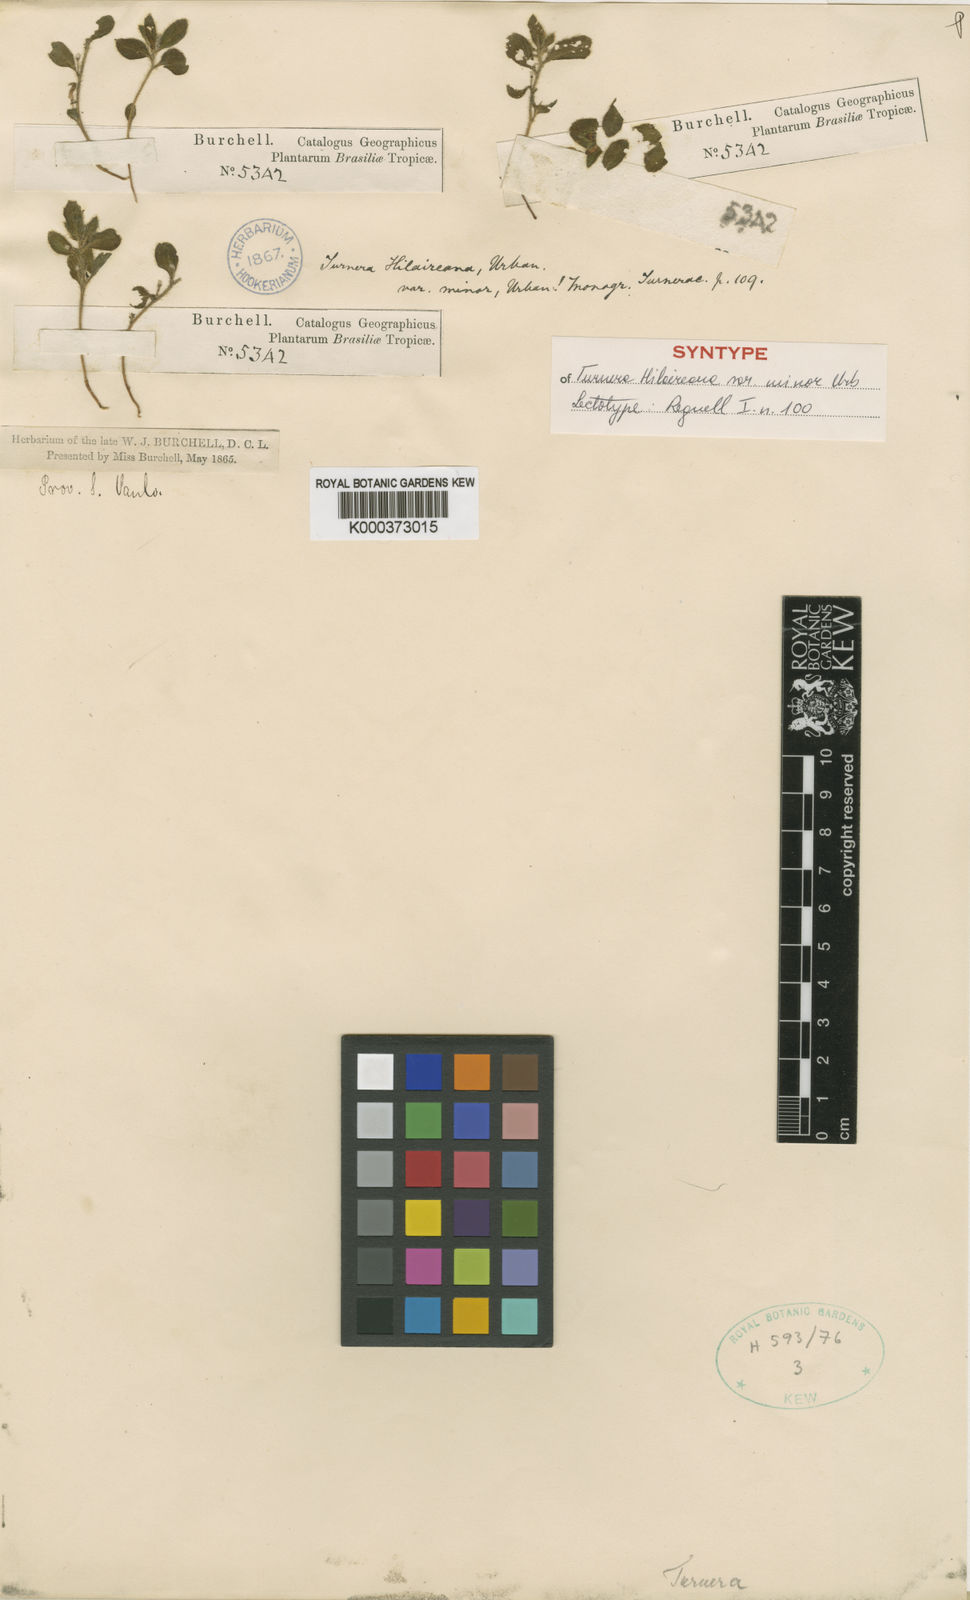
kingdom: Plantae
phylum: Tracheophyta
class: Magnoliopsida
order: Malpighiales
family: Turneraceae
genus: Turnera
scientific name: Turnera hilaireana
